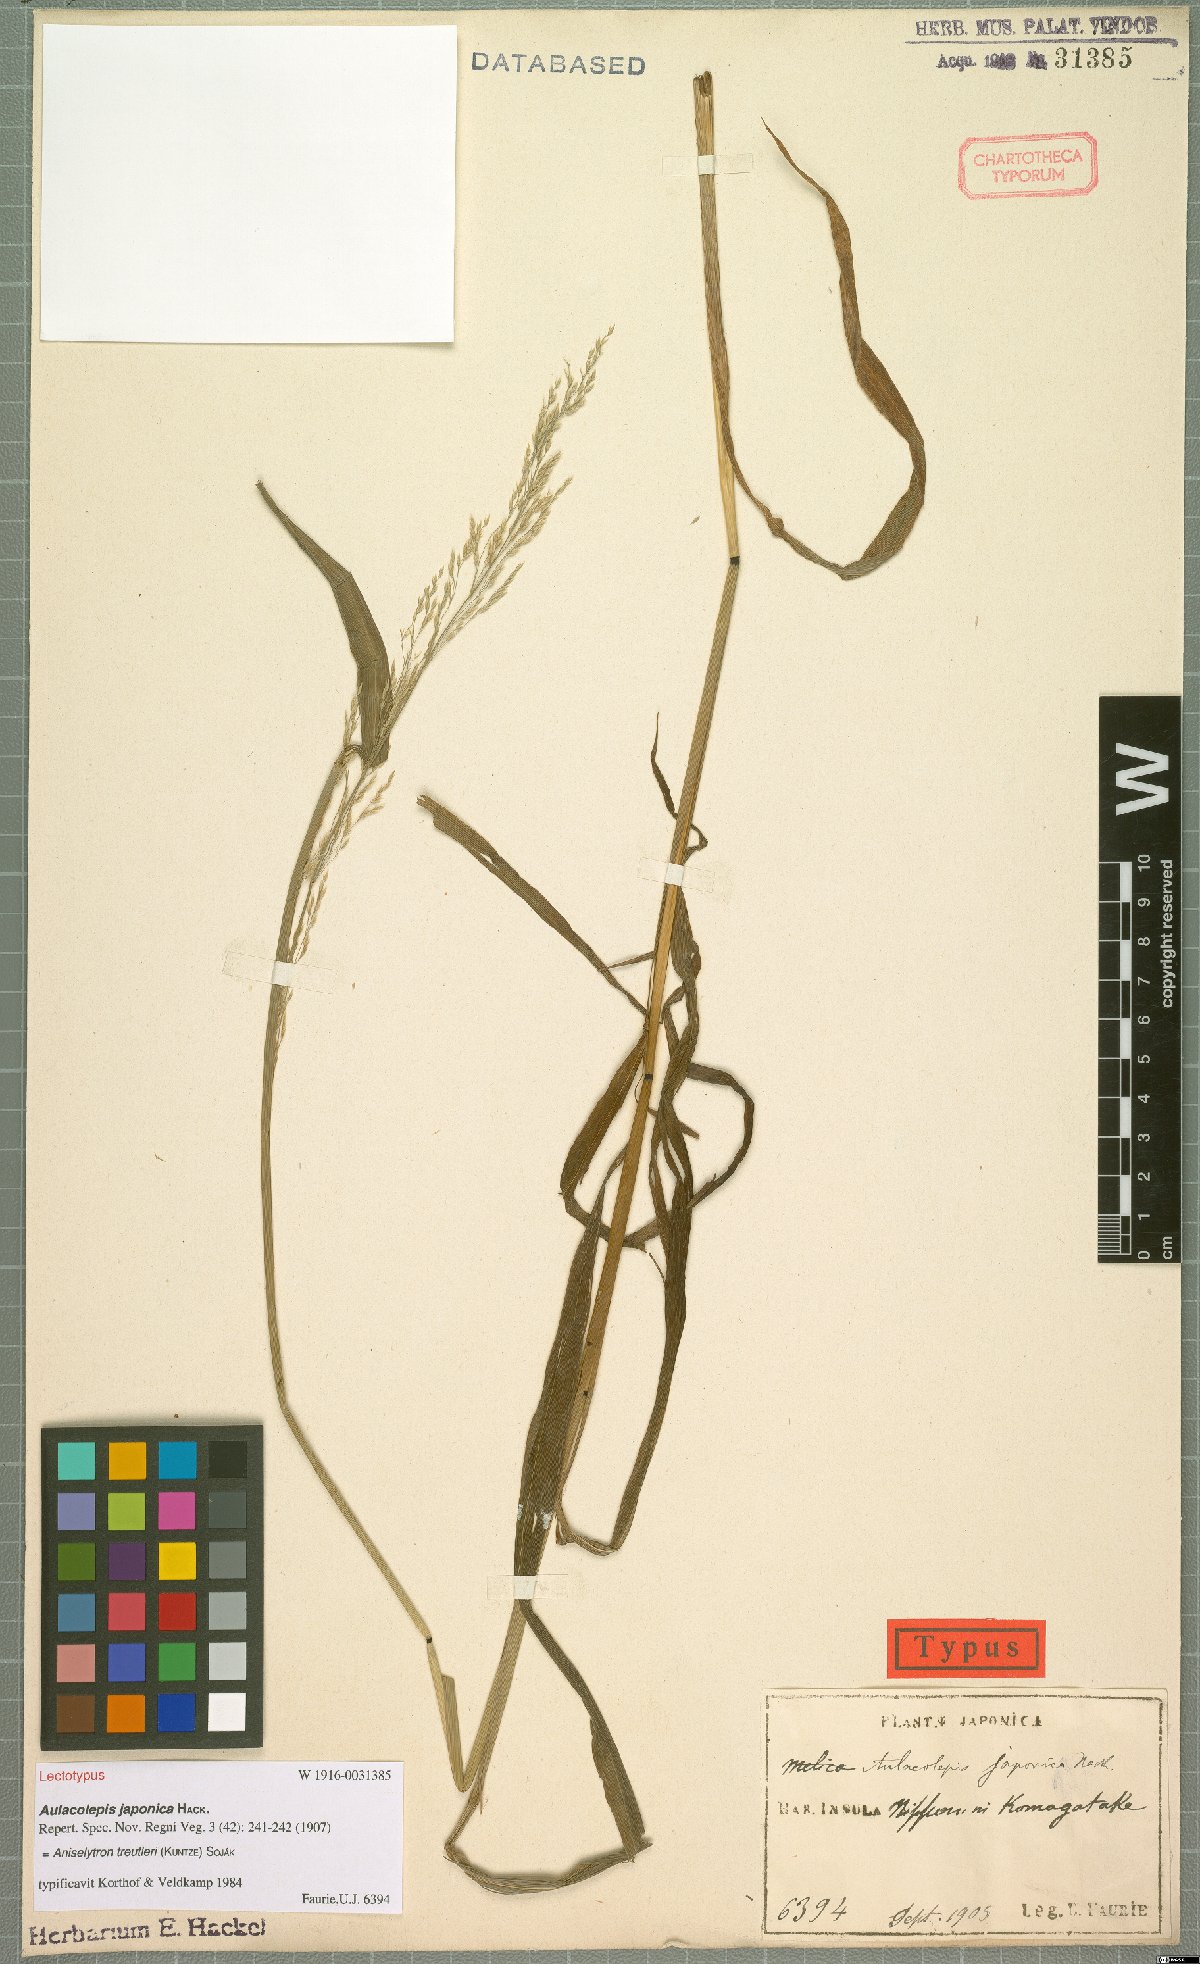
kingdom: Plantae
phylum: Tracheophyta
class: Liliopsida
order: Poales
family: Poaceae
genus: Aniselytron
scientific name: Aniselytron treutleri
